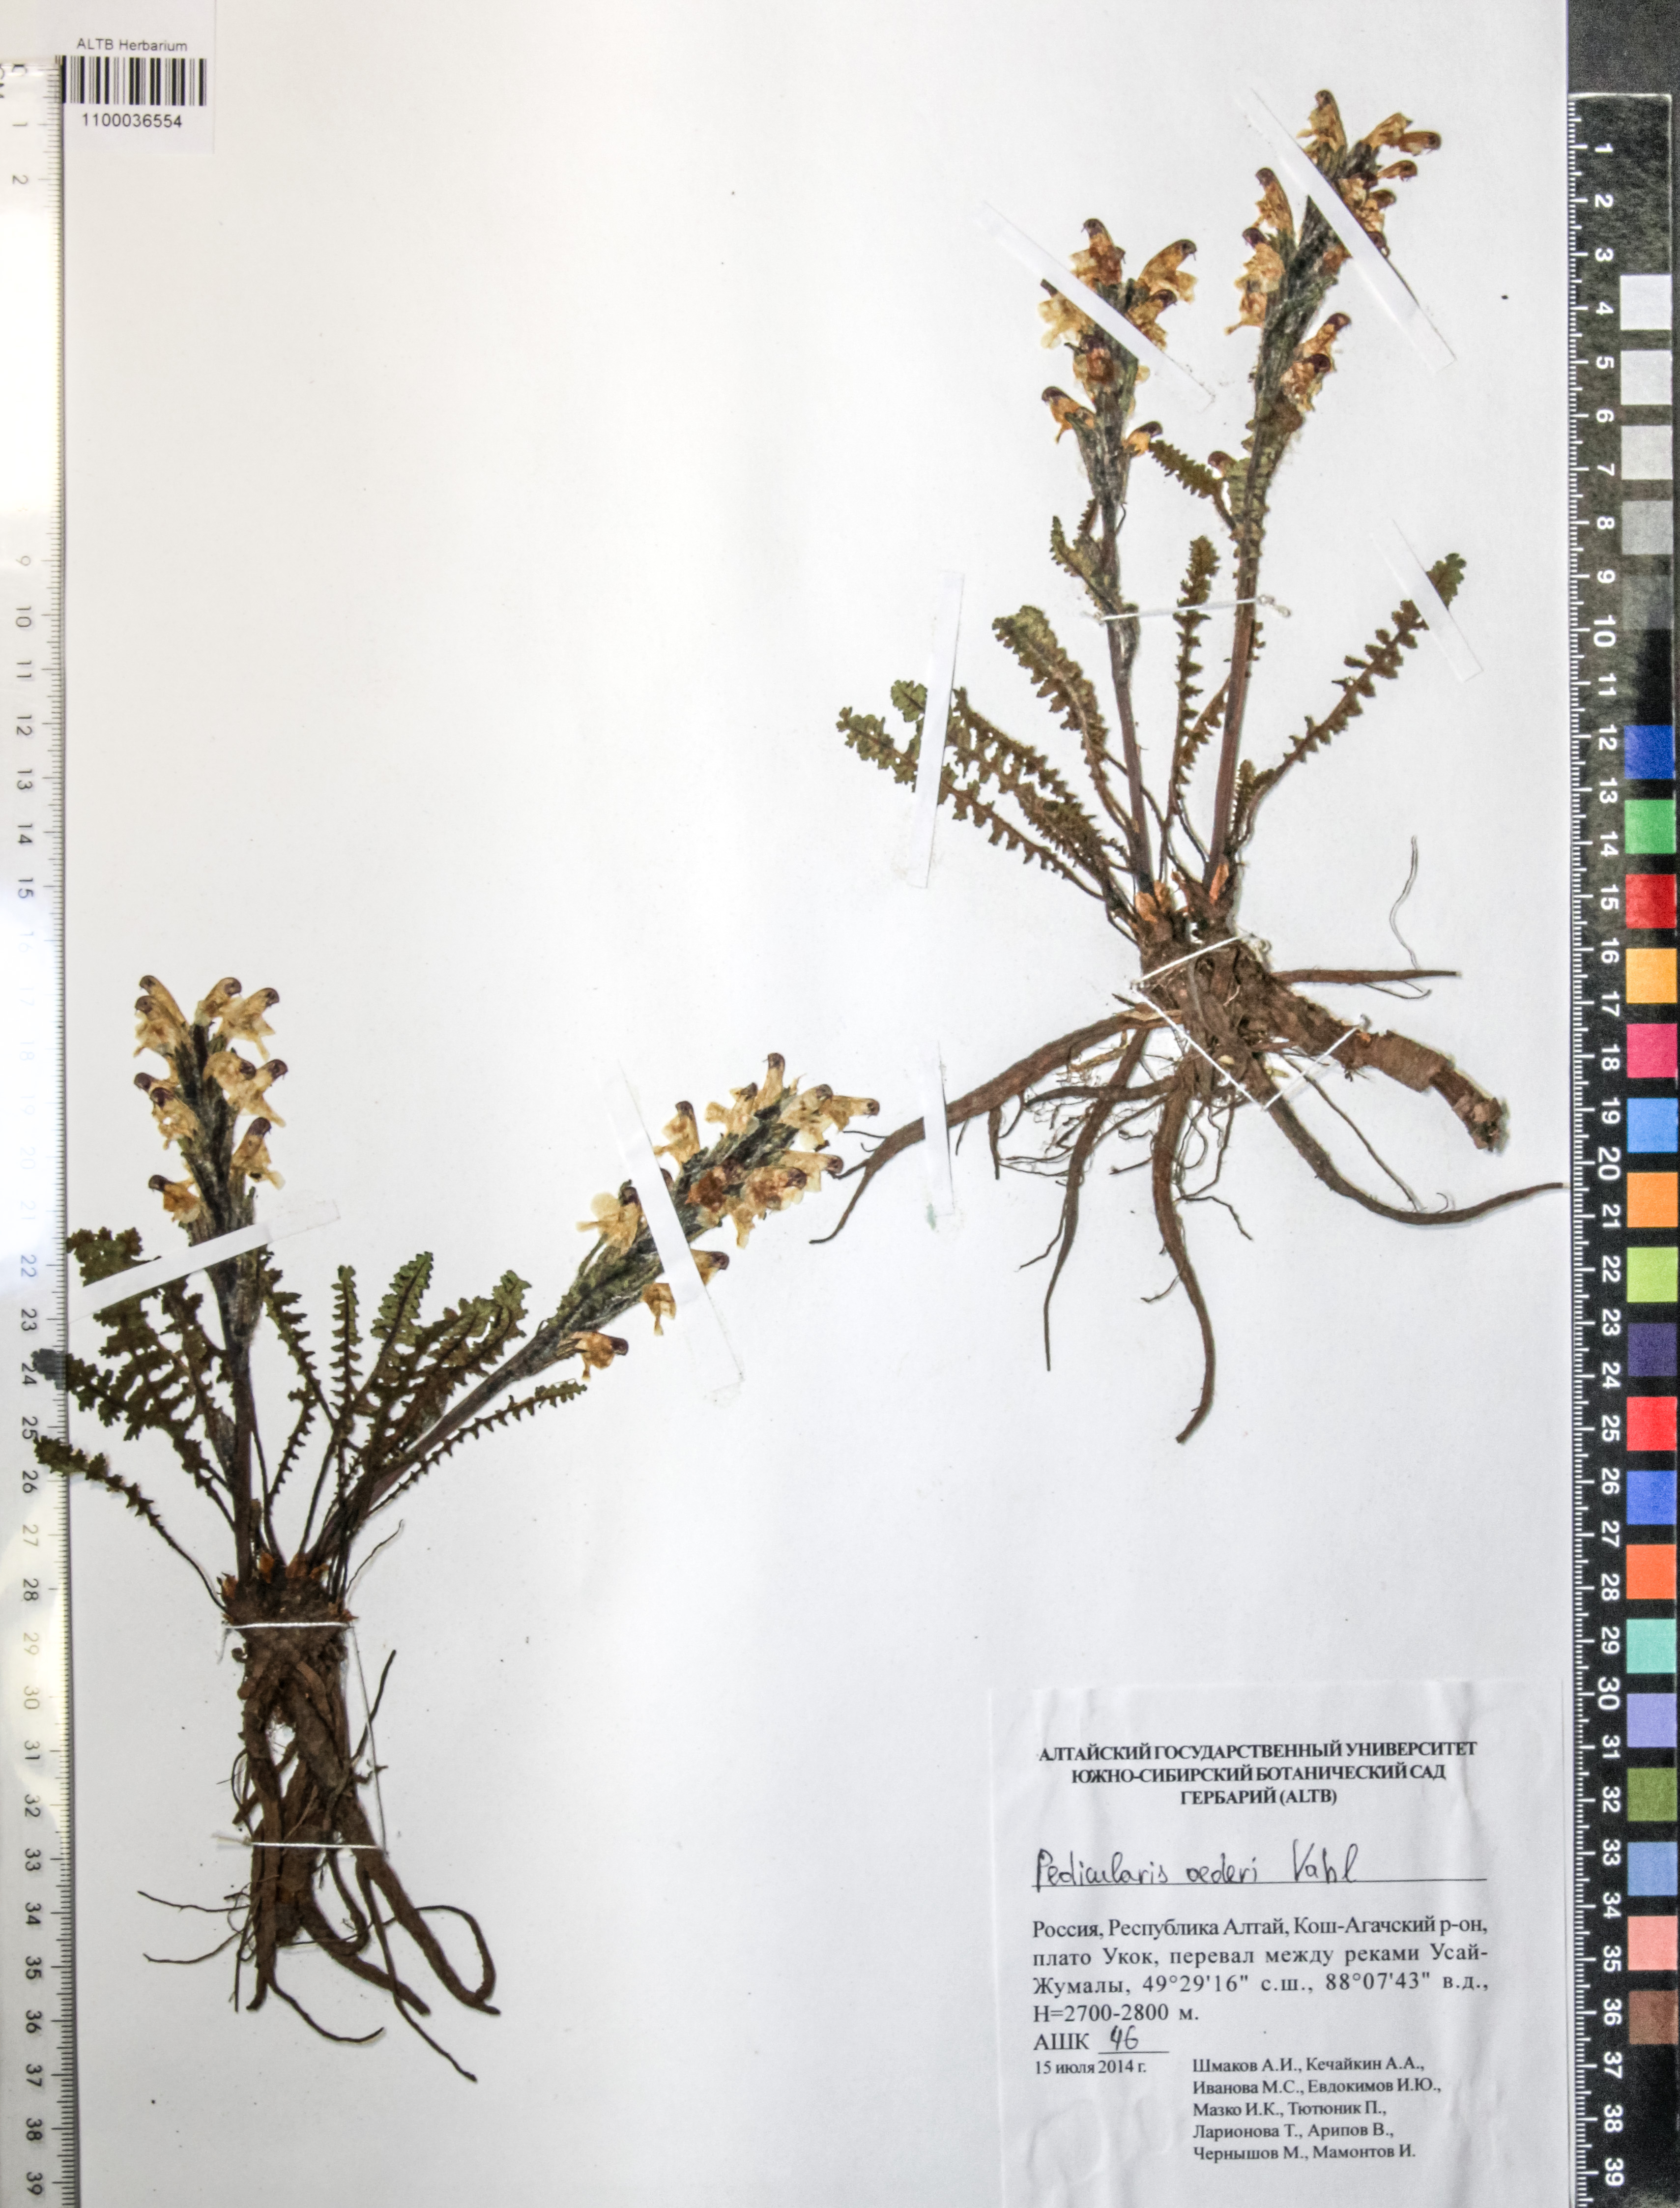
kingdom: Plantae
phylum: Tracheophyta
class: Magnoliopsida
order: Caryophyllales
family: Caryophyllaceae
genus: Silene
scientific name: Silene graminifolia
